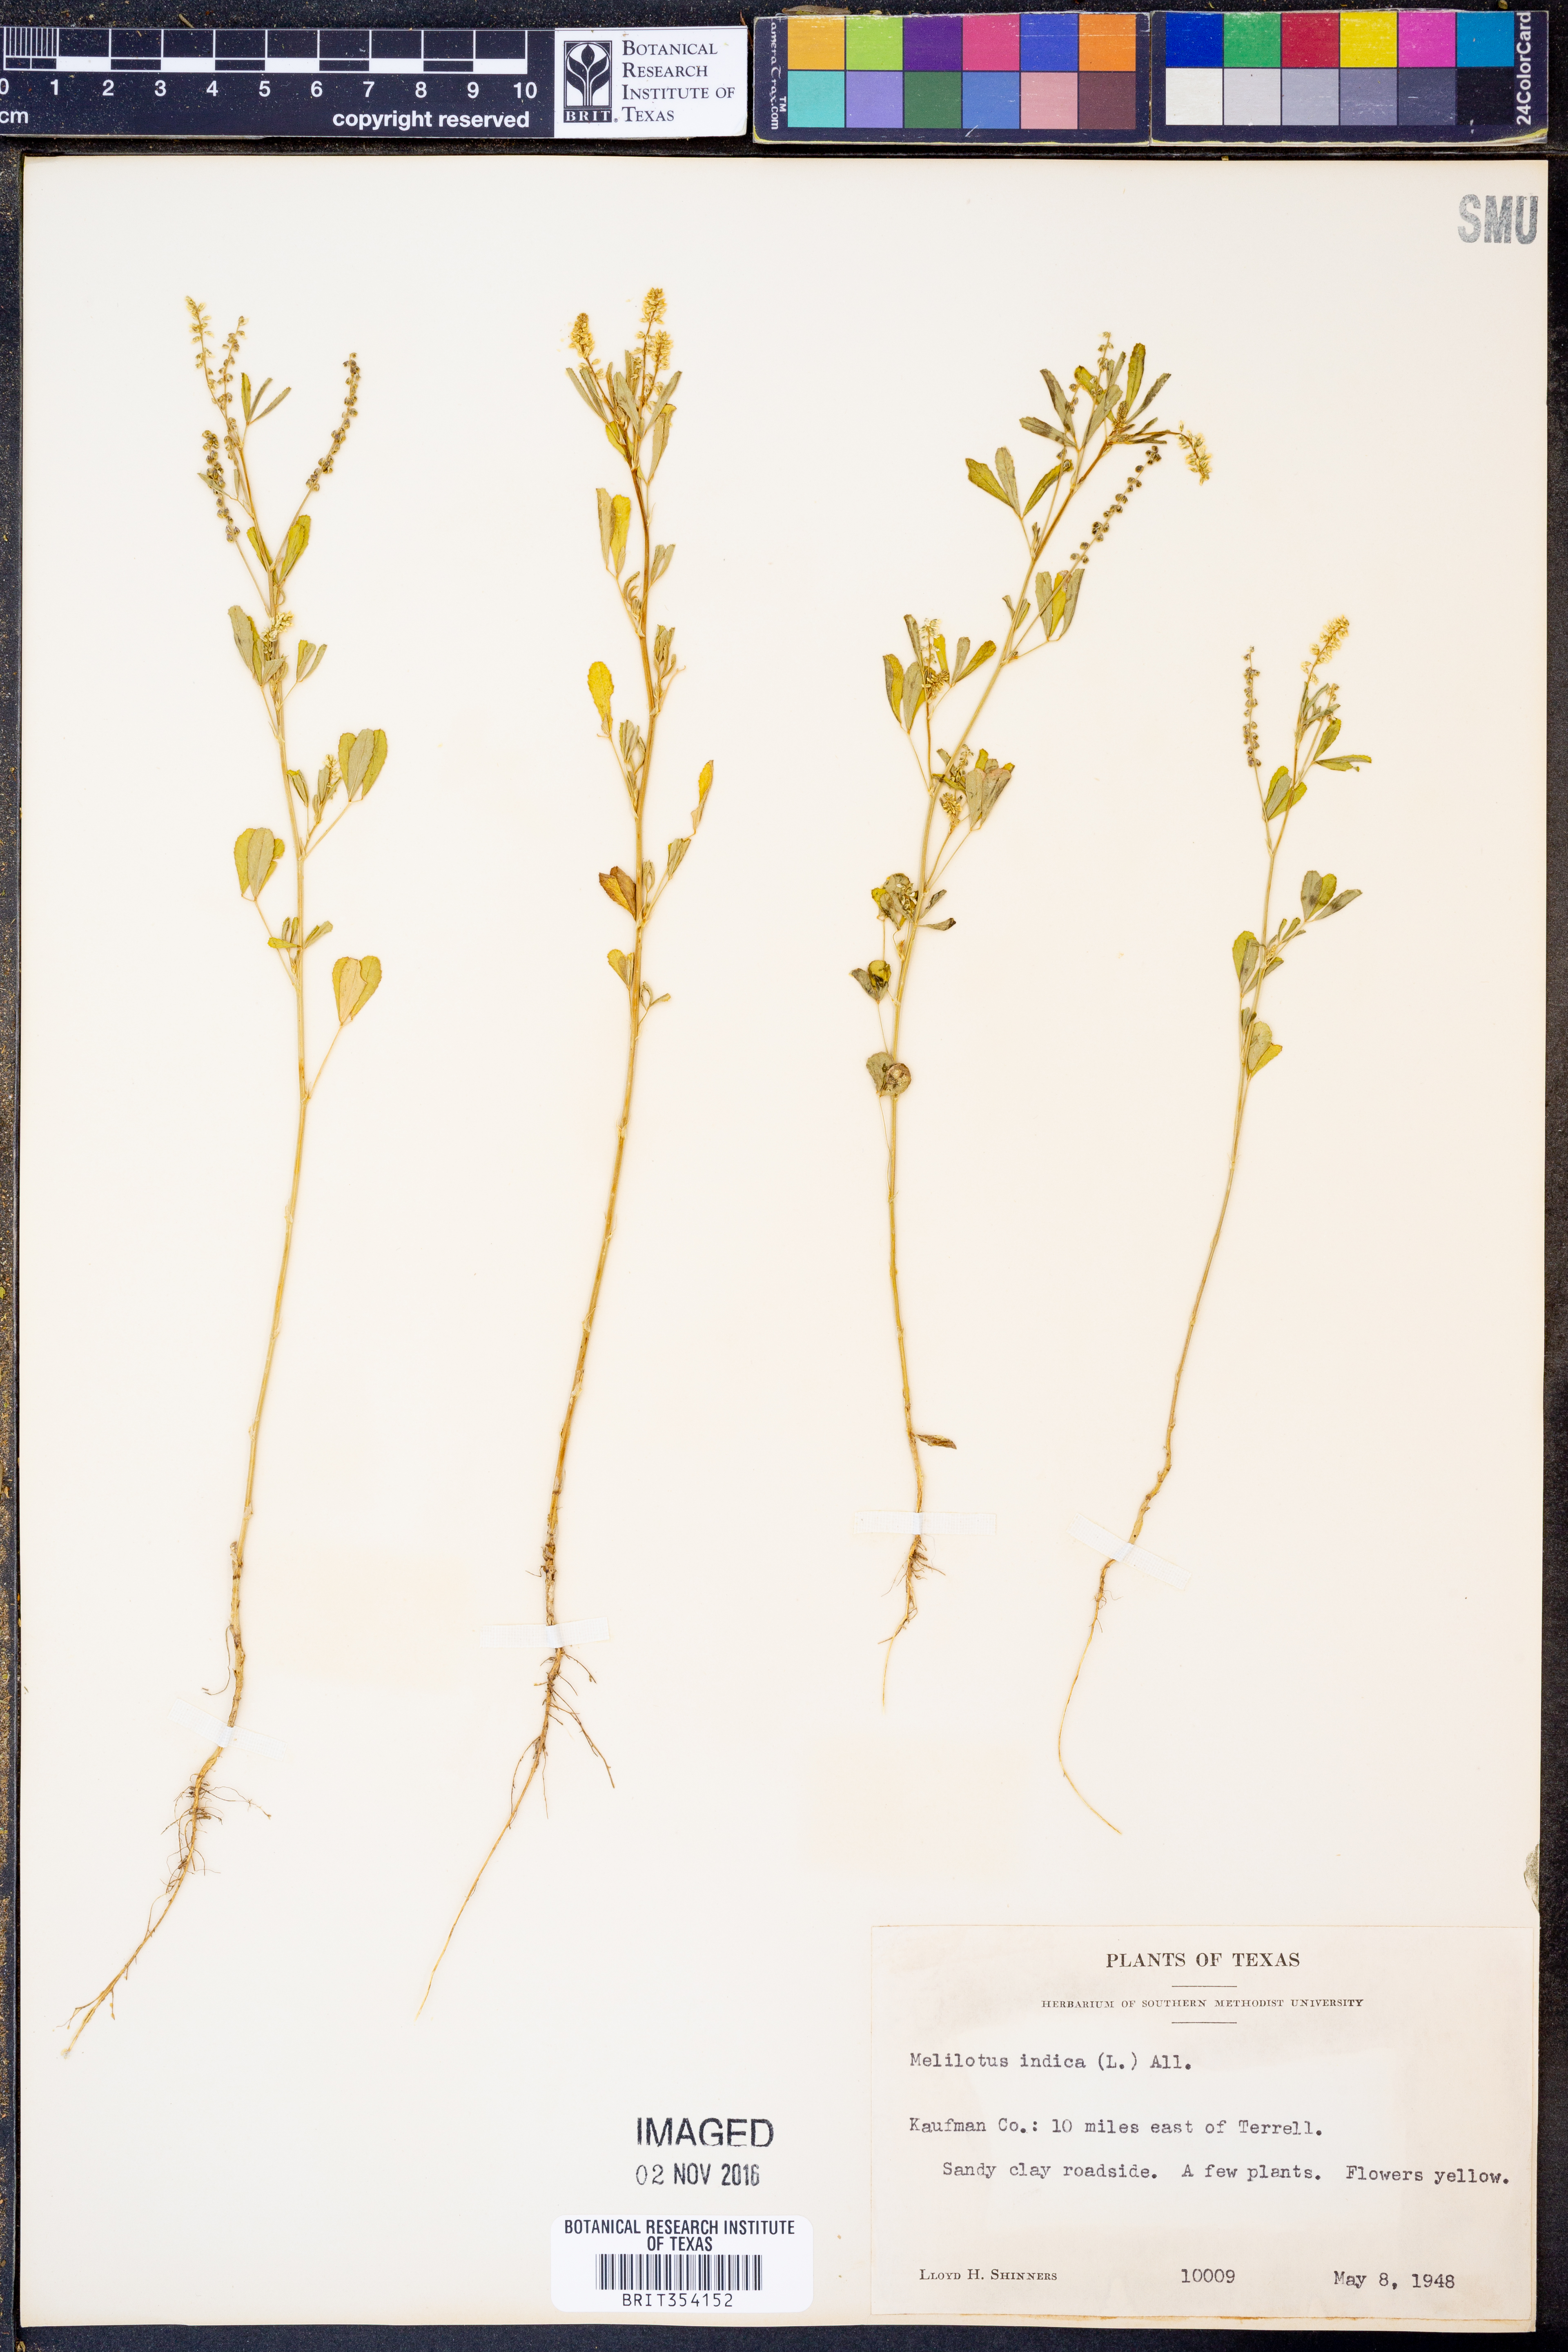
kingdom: Plantae
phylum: Tracheophyta
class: Magnoliopsida
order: Fabales
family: Fabaceae
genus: Melilotus
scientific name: Melilotus indicus
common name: Small melilot
